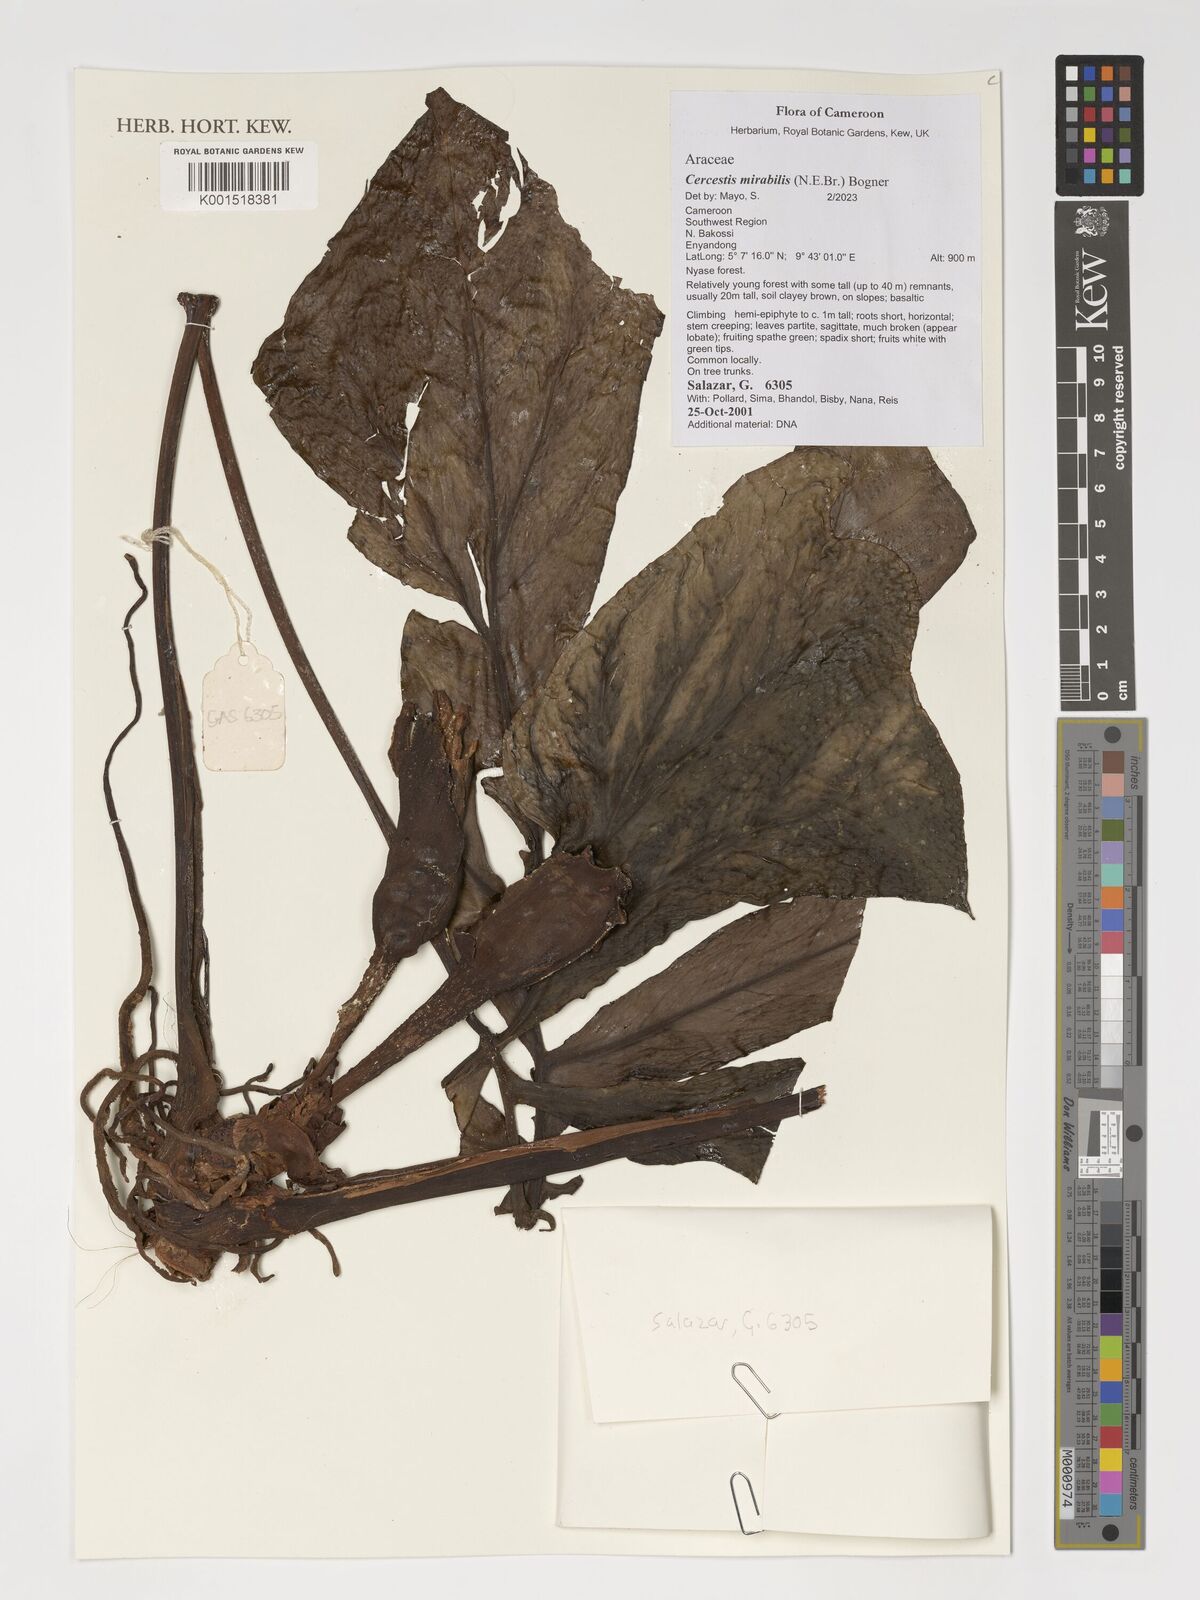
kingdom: Plantae
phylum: Tracheophyta
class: Liliopsida
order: Alismatales
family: Araceae
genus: Cercestis
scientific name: Cercestis mirabilis
